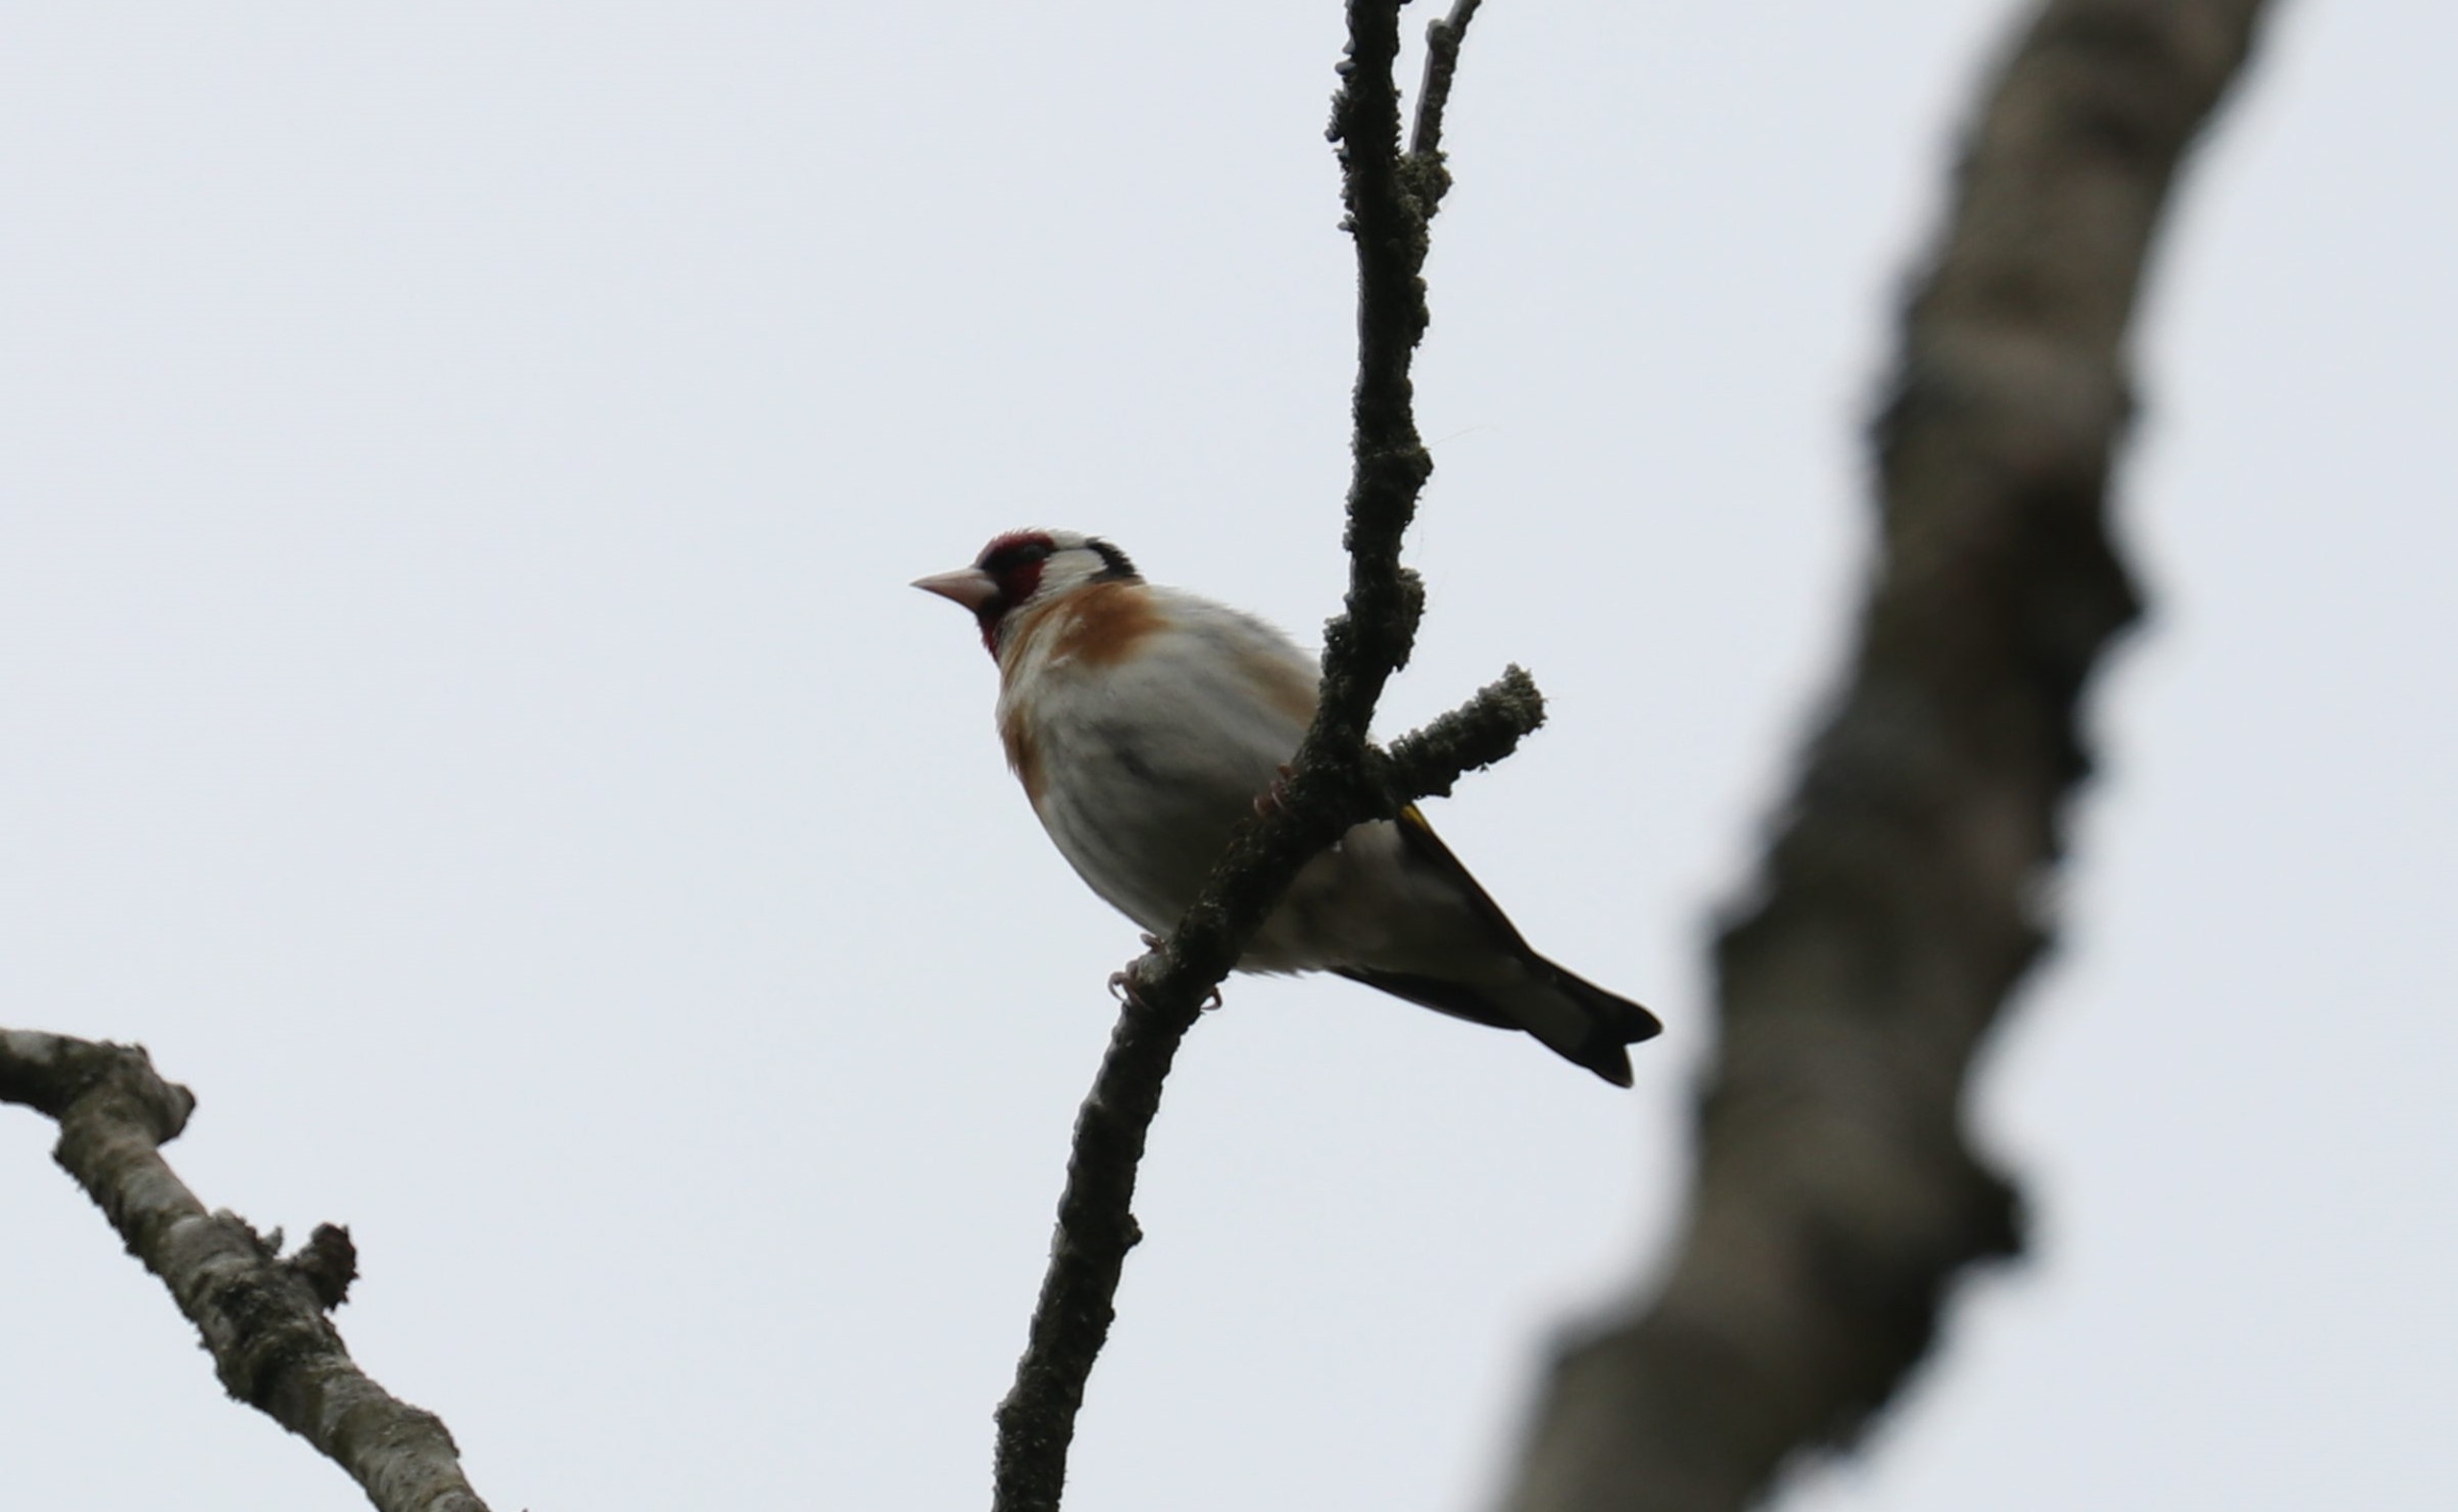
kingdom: Animalia
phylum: Chordata
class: Aves
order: Passeriformes
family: Fringillidae
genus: Carduelis
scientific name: Carduelis carduelis
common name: Stillits
